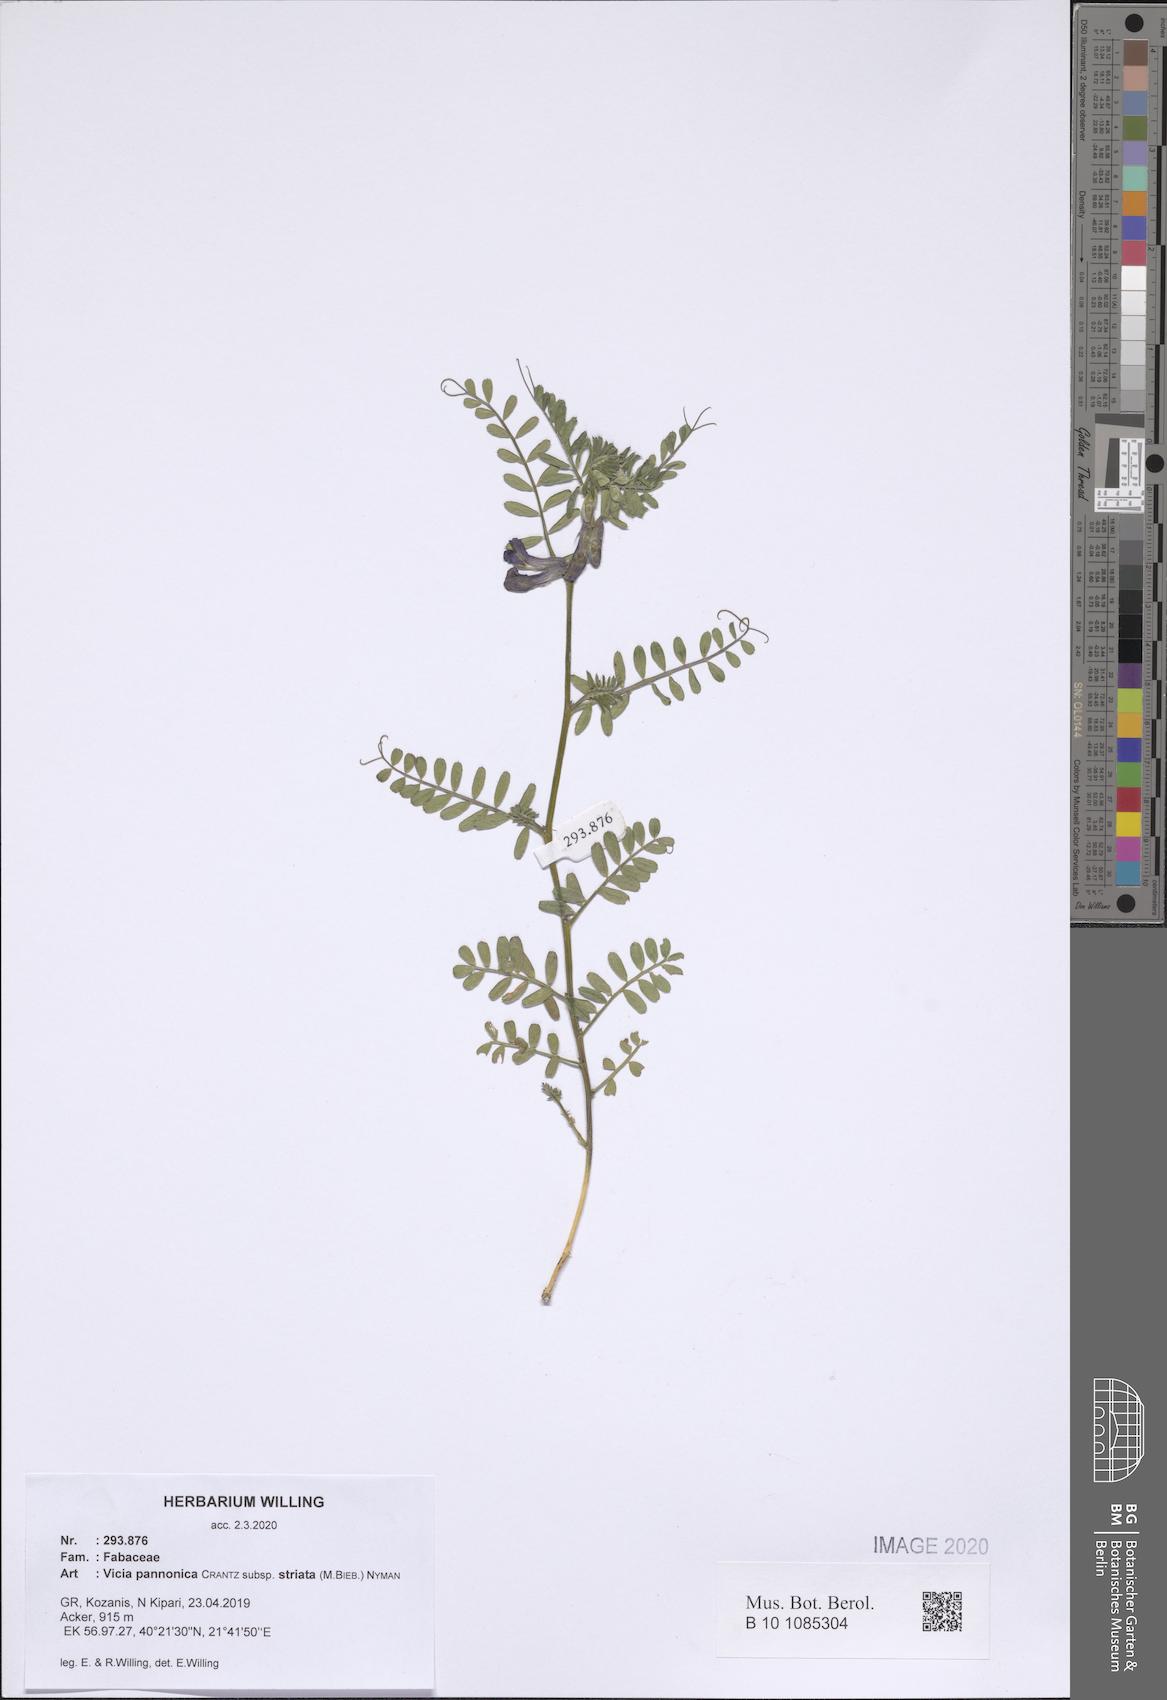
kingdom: Plantae
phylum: Tracheophyta
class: Magnoliopsida
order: Fabales
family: Fabaceae
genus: Vicia
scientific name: Vicia pannonica
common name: Hungarian vetch
